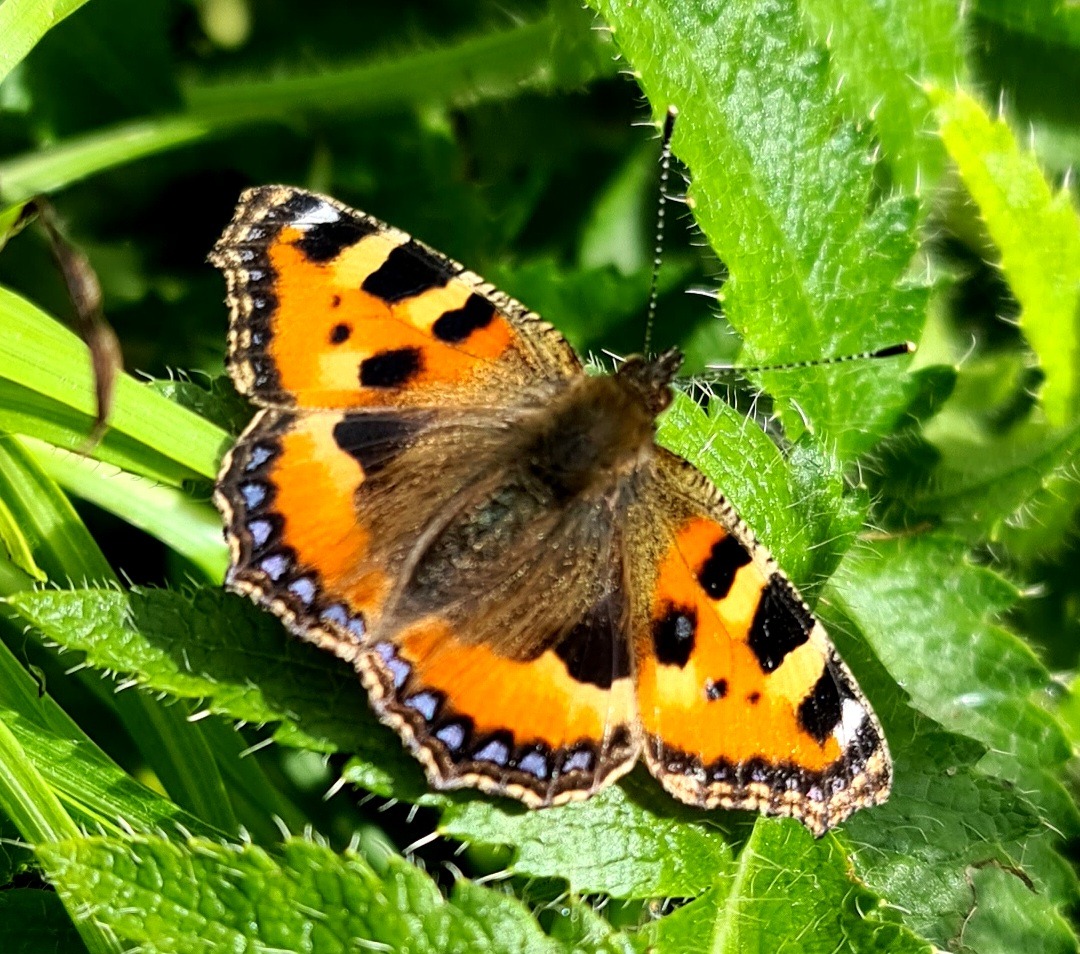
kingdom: Animalia
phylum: Arthropoda
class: Insecta
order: Lepidoptera
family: Nymphalidae
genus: Aglais
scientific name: Aglais urticae
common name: Nældens takvinge
